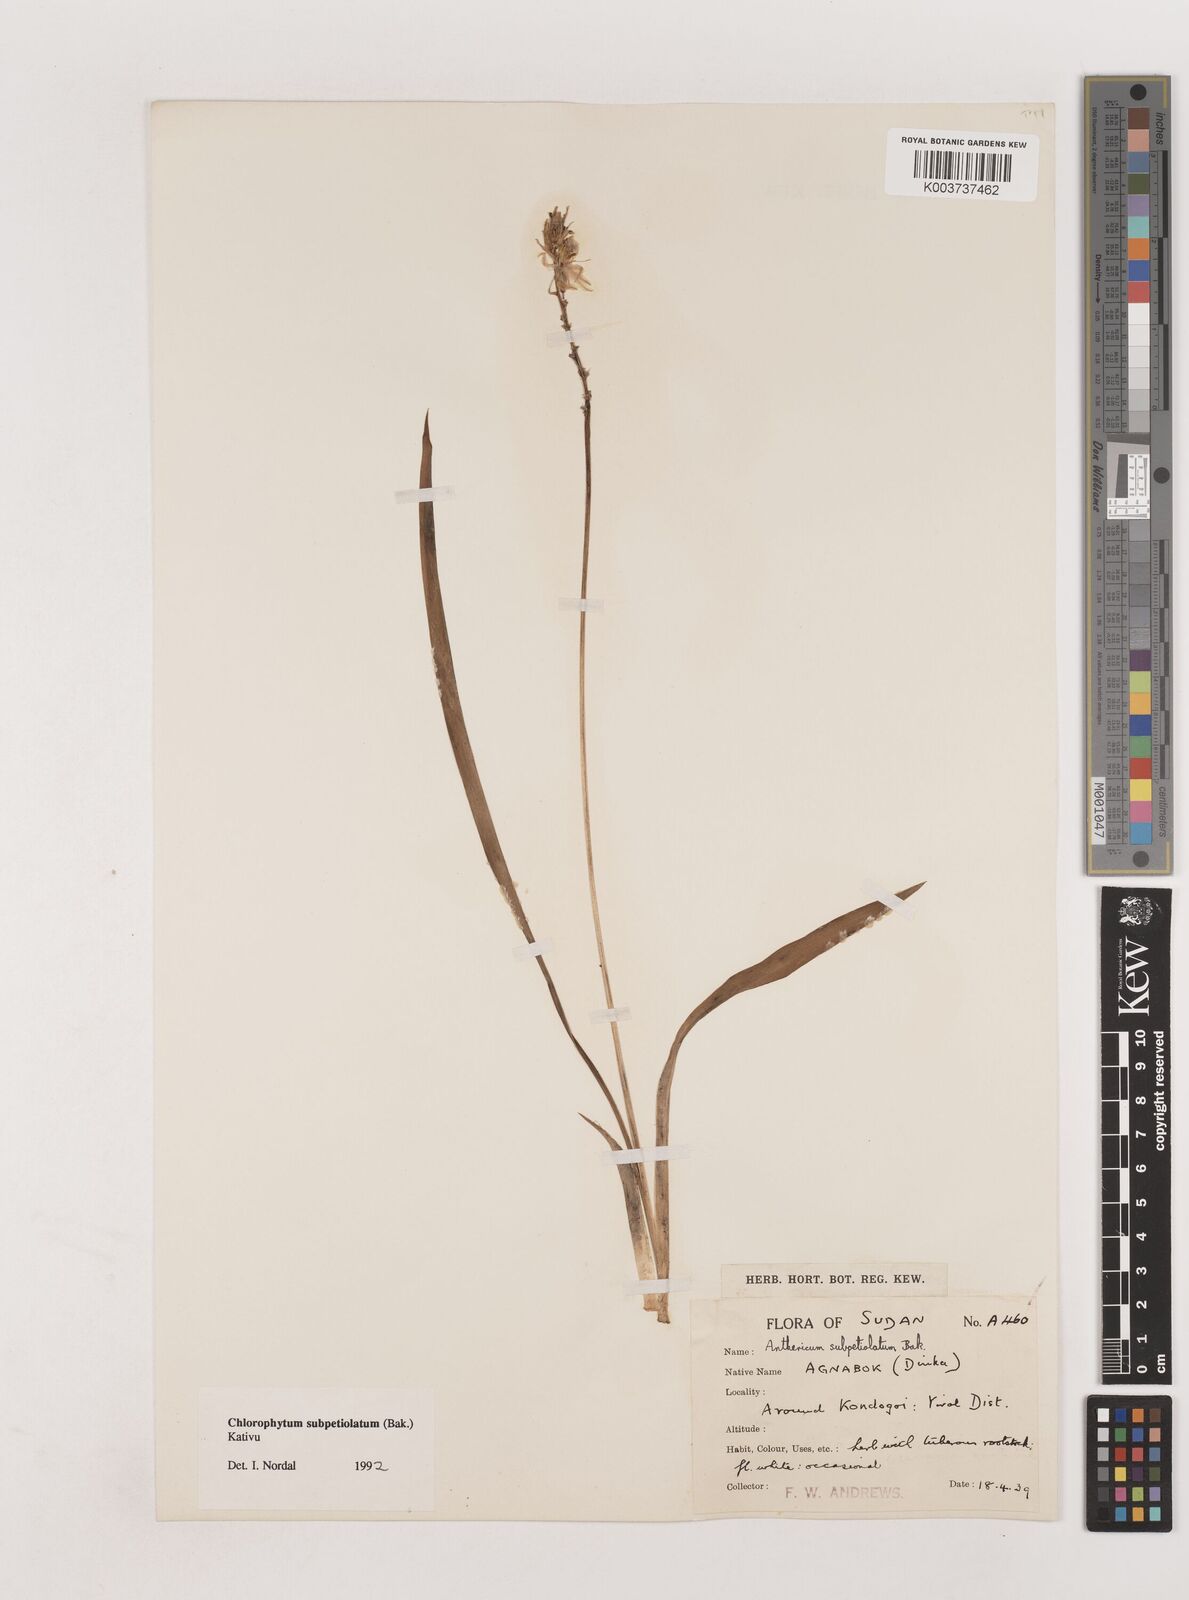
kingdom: Plantae
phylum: Tracheophyta
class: Liliopsida
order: Asparagales
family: Asparagaceae
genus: Chlorophytum
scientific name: Chlorophytum subpetiolatum
